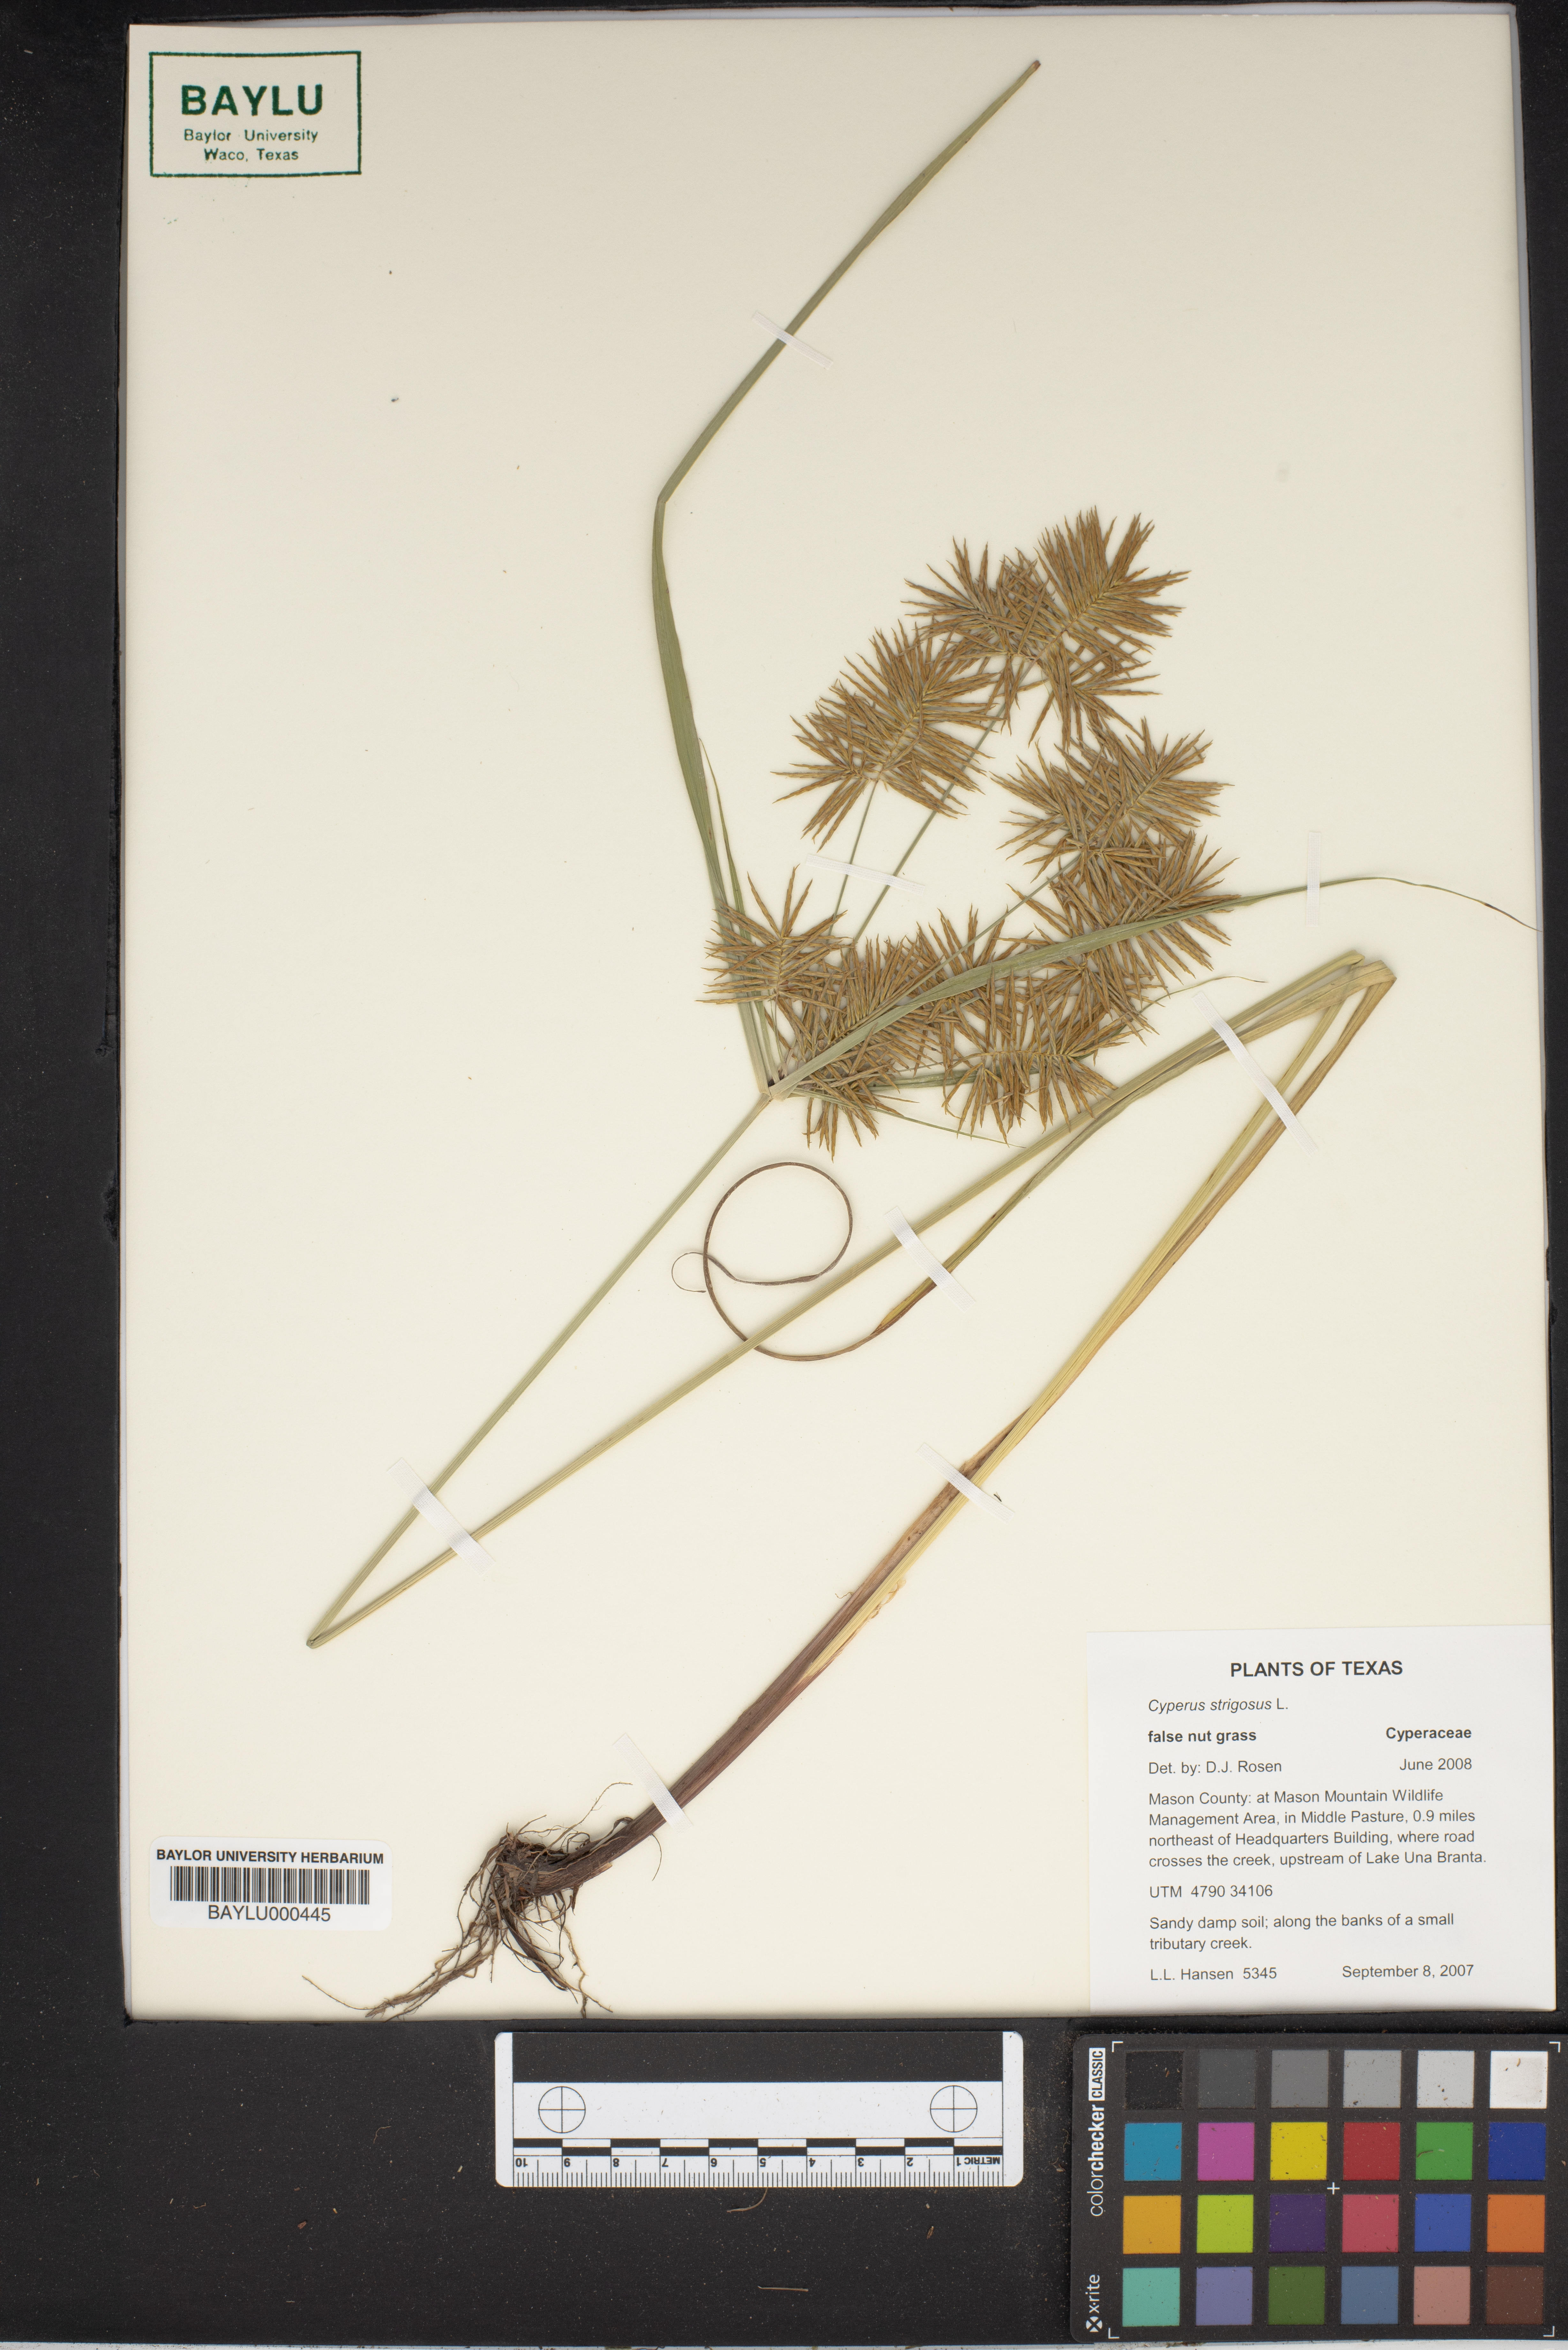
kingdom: Plantae
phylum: Tracheophyta
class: Liliopsida
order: Poales
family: Cyperaceae
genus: Cyperus
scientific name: Cyperus strigosus
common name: False nutsedge
